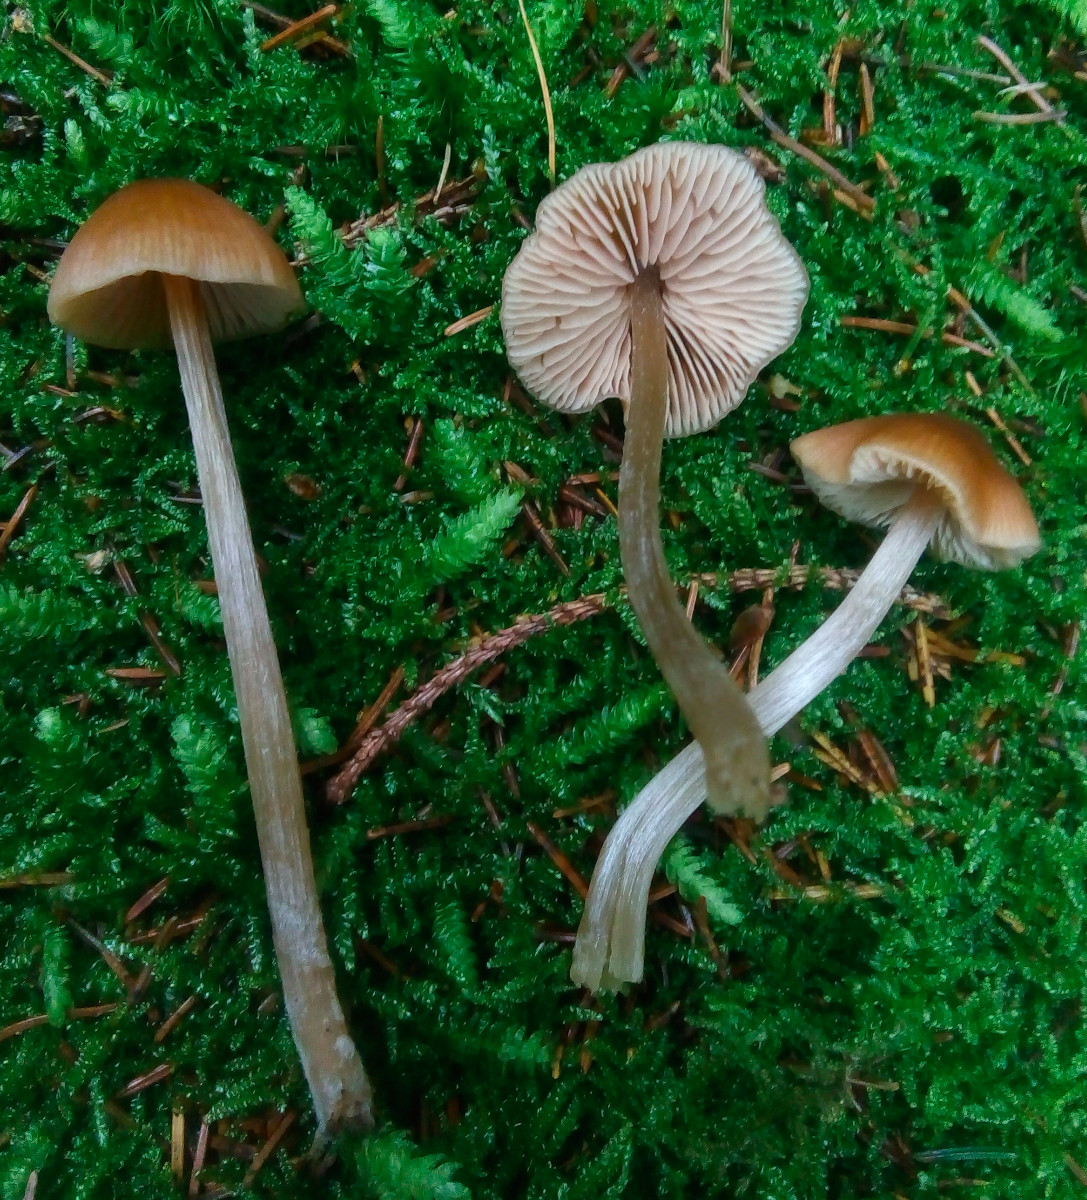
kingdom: Fungi
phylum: Basidiomycota
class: Agaricomycetes
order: Agaricales
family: Entolomataceae
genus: Entoloma
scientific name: Entoloma cetratum
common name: voks-rødblad
